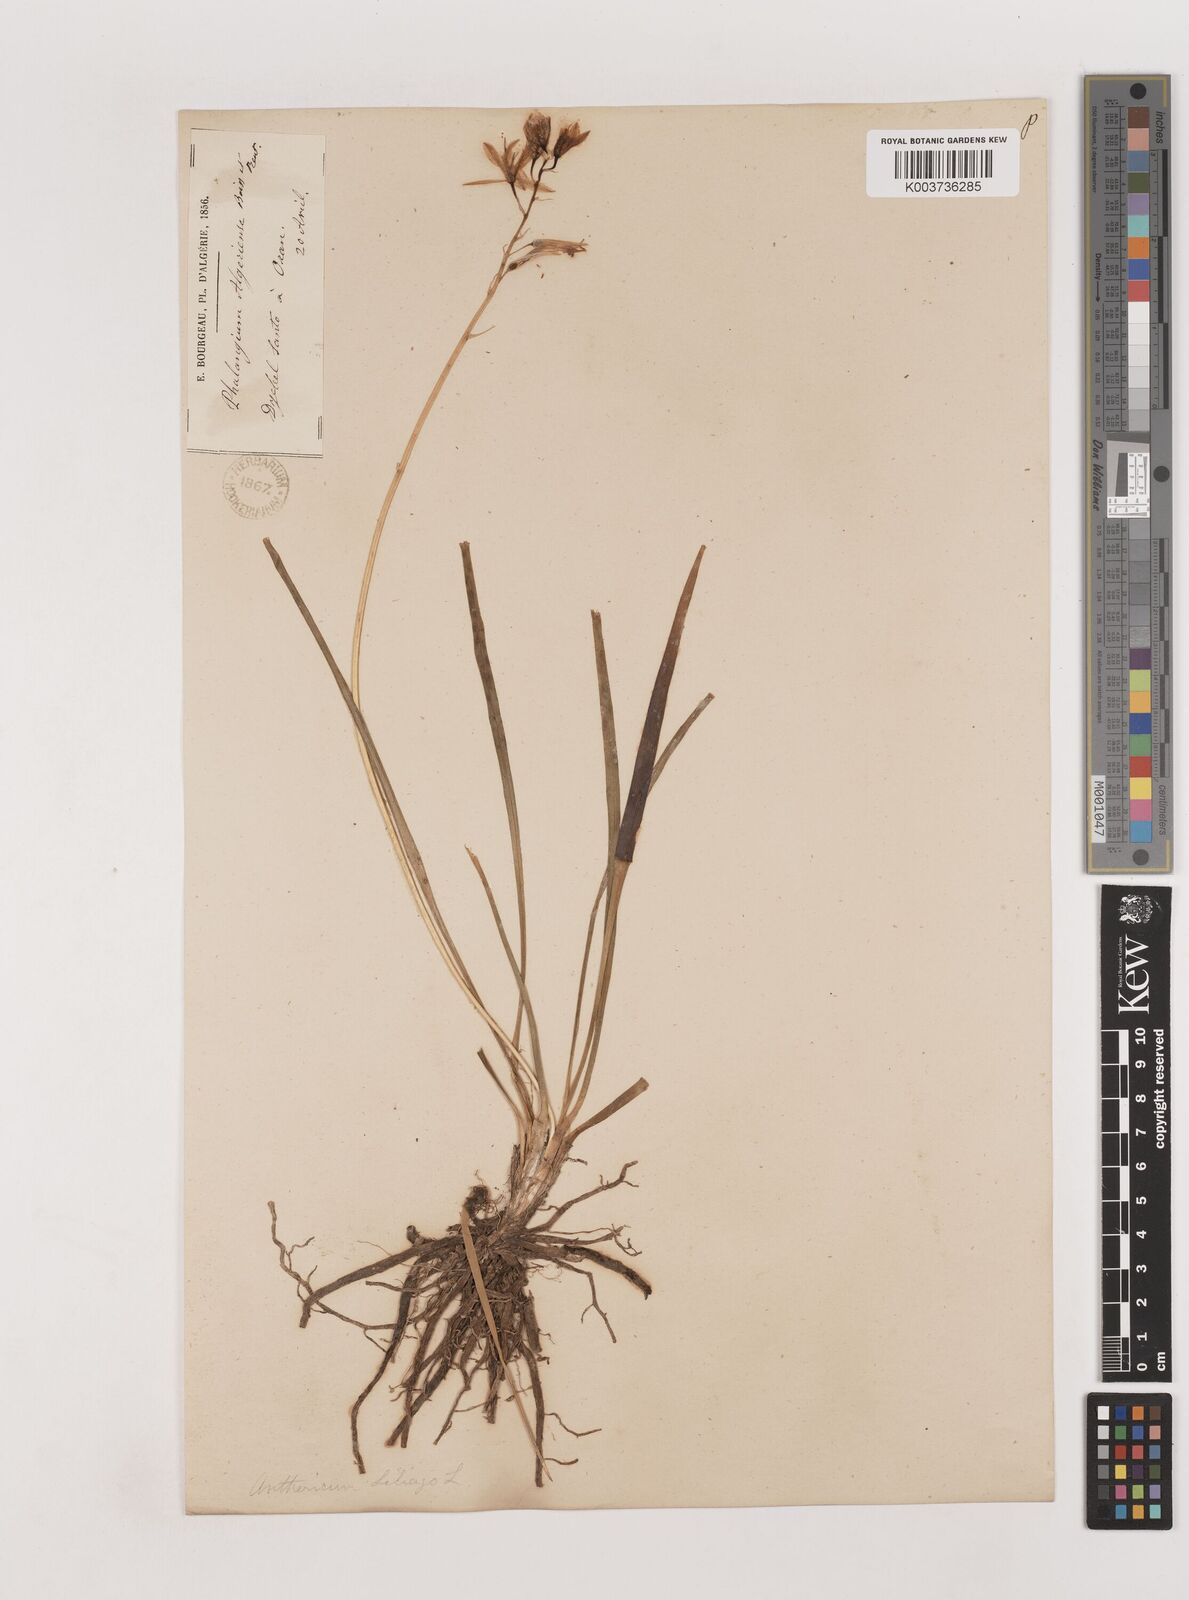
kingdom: Plantae
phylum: Tracheophyta
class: Liliopsida
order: Asparagales
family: Asparagaceae
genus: Anthericum
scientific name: Anthericum liliago
